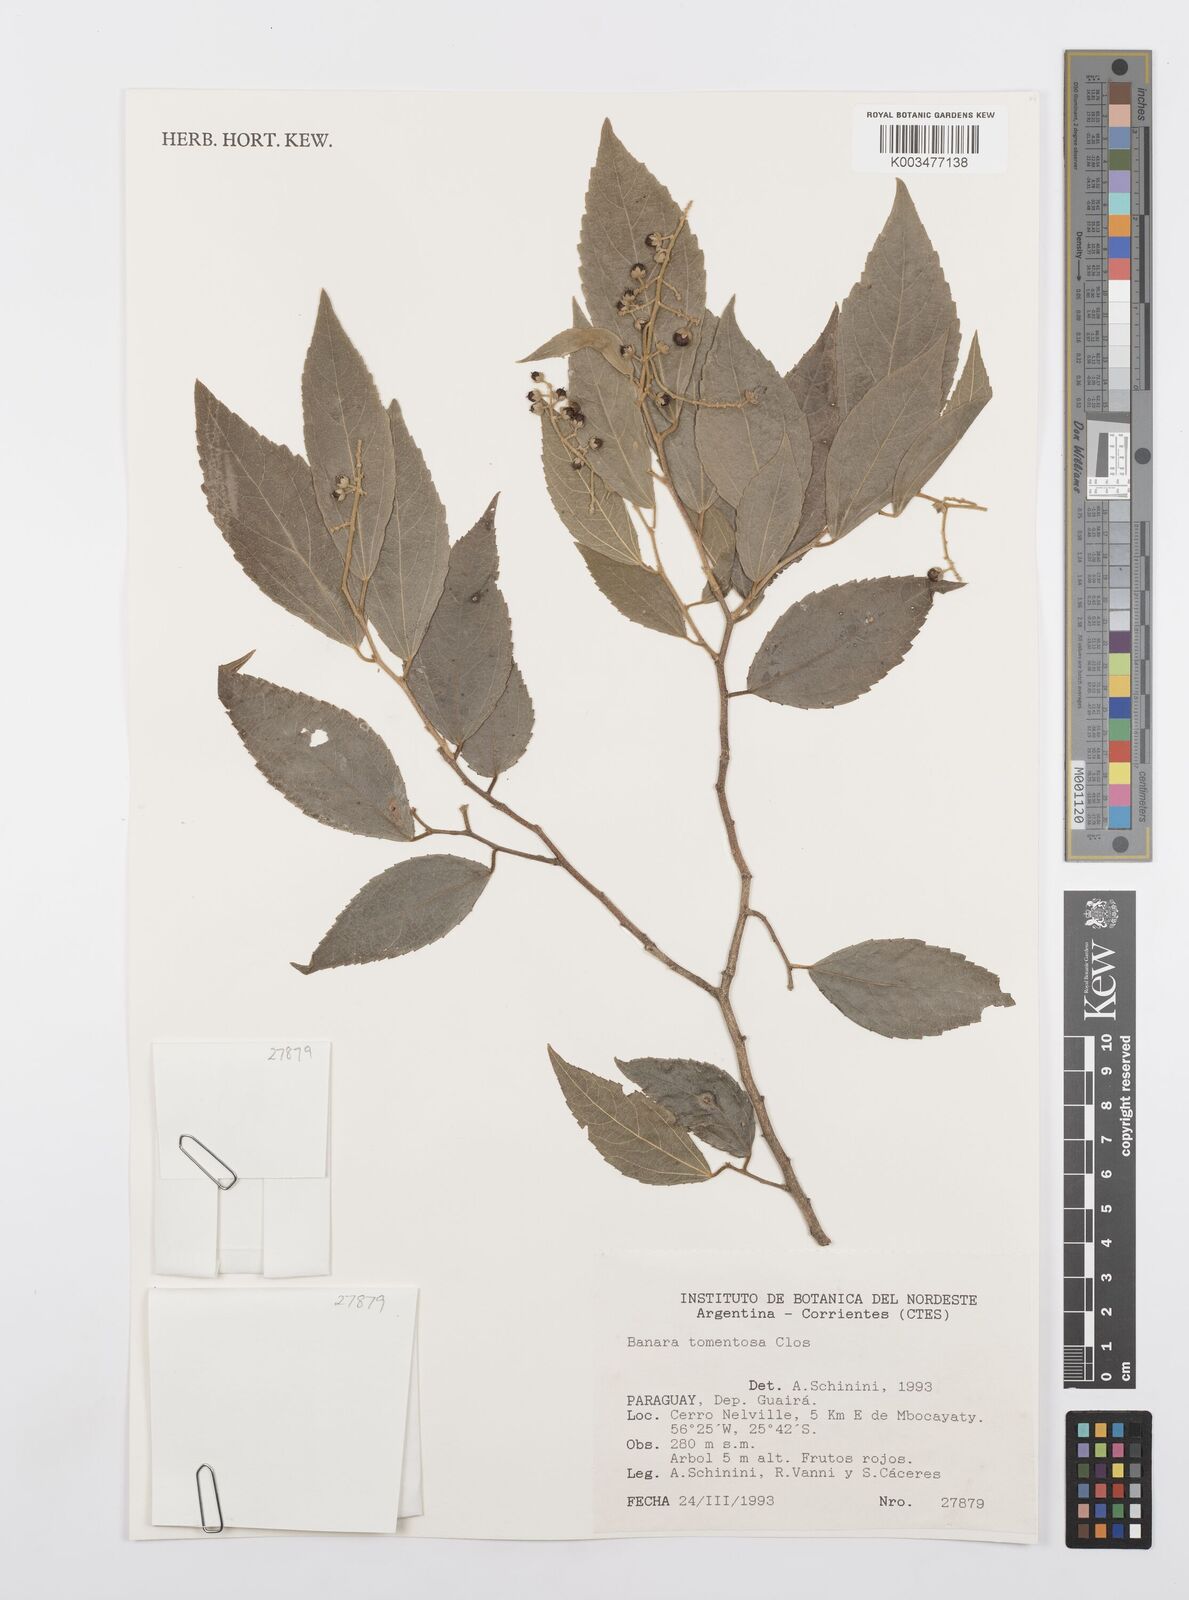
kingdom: Plantae
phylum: Tracheophyta
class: Magnoliopsida
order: Malpighiales
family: Salicaceae
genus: Banara
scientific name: Banara tomentosa
